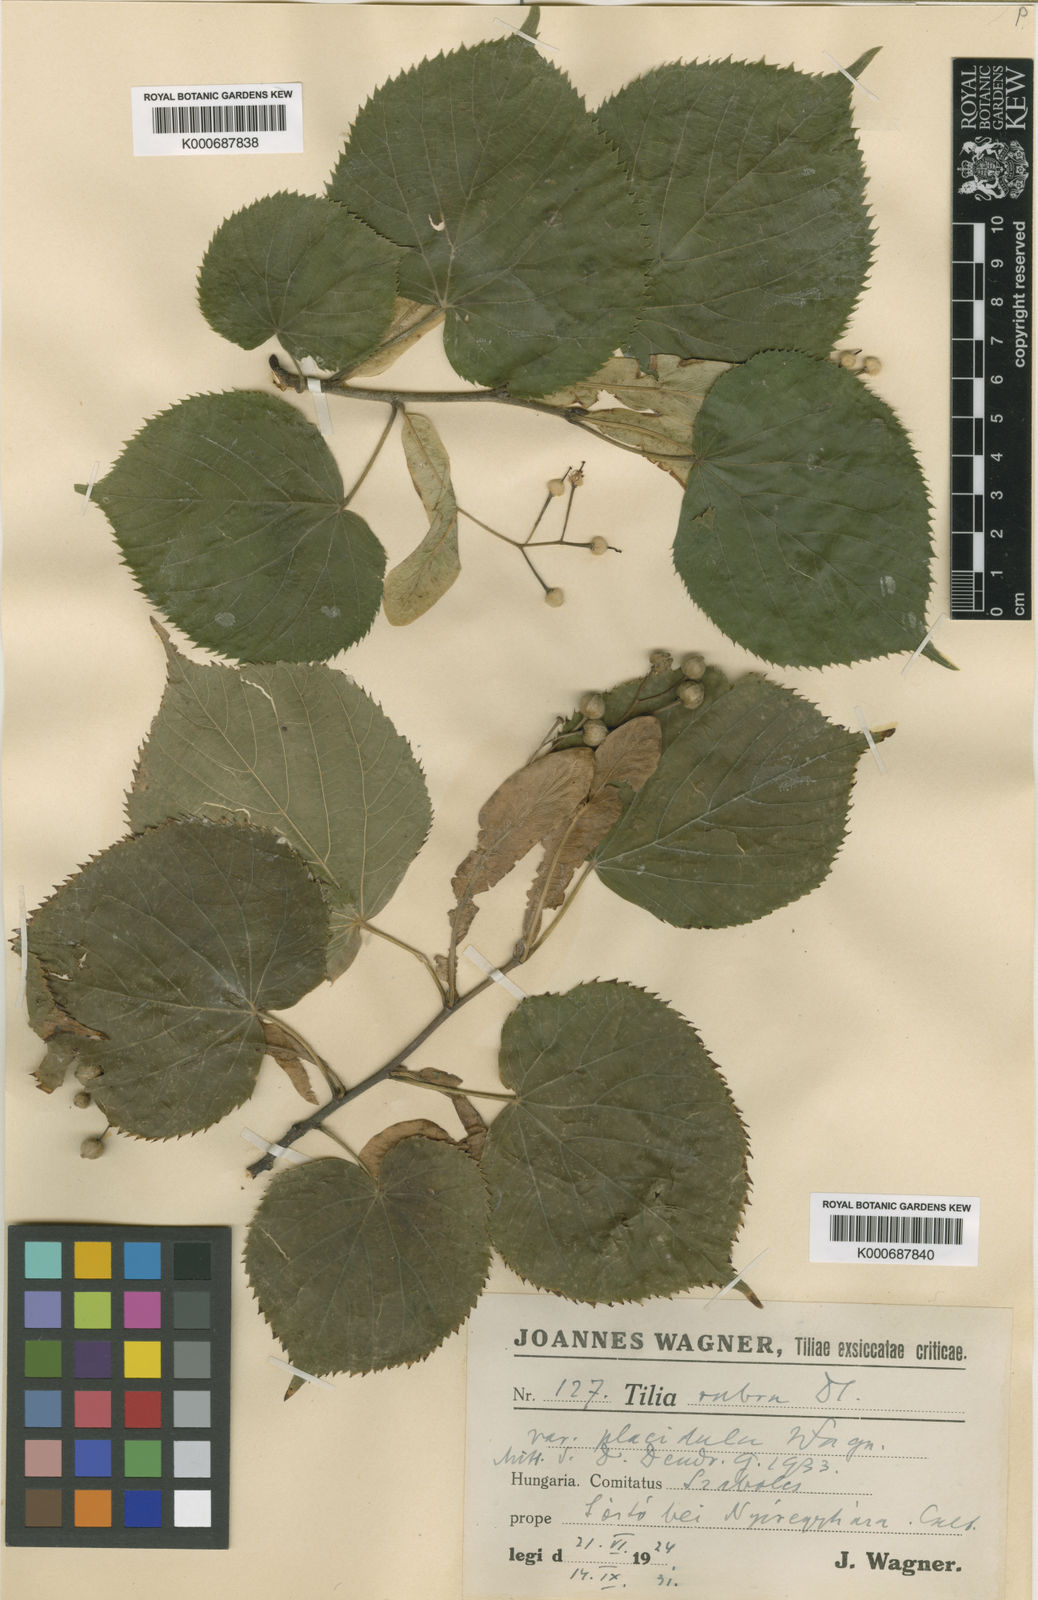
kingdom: Plantae
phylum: Tracheophyta
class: Magnoliopsida
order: Malvales
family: Malvaceae
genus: Tilia
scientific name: Tilia platyphyllos
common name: Large-leaved lime
